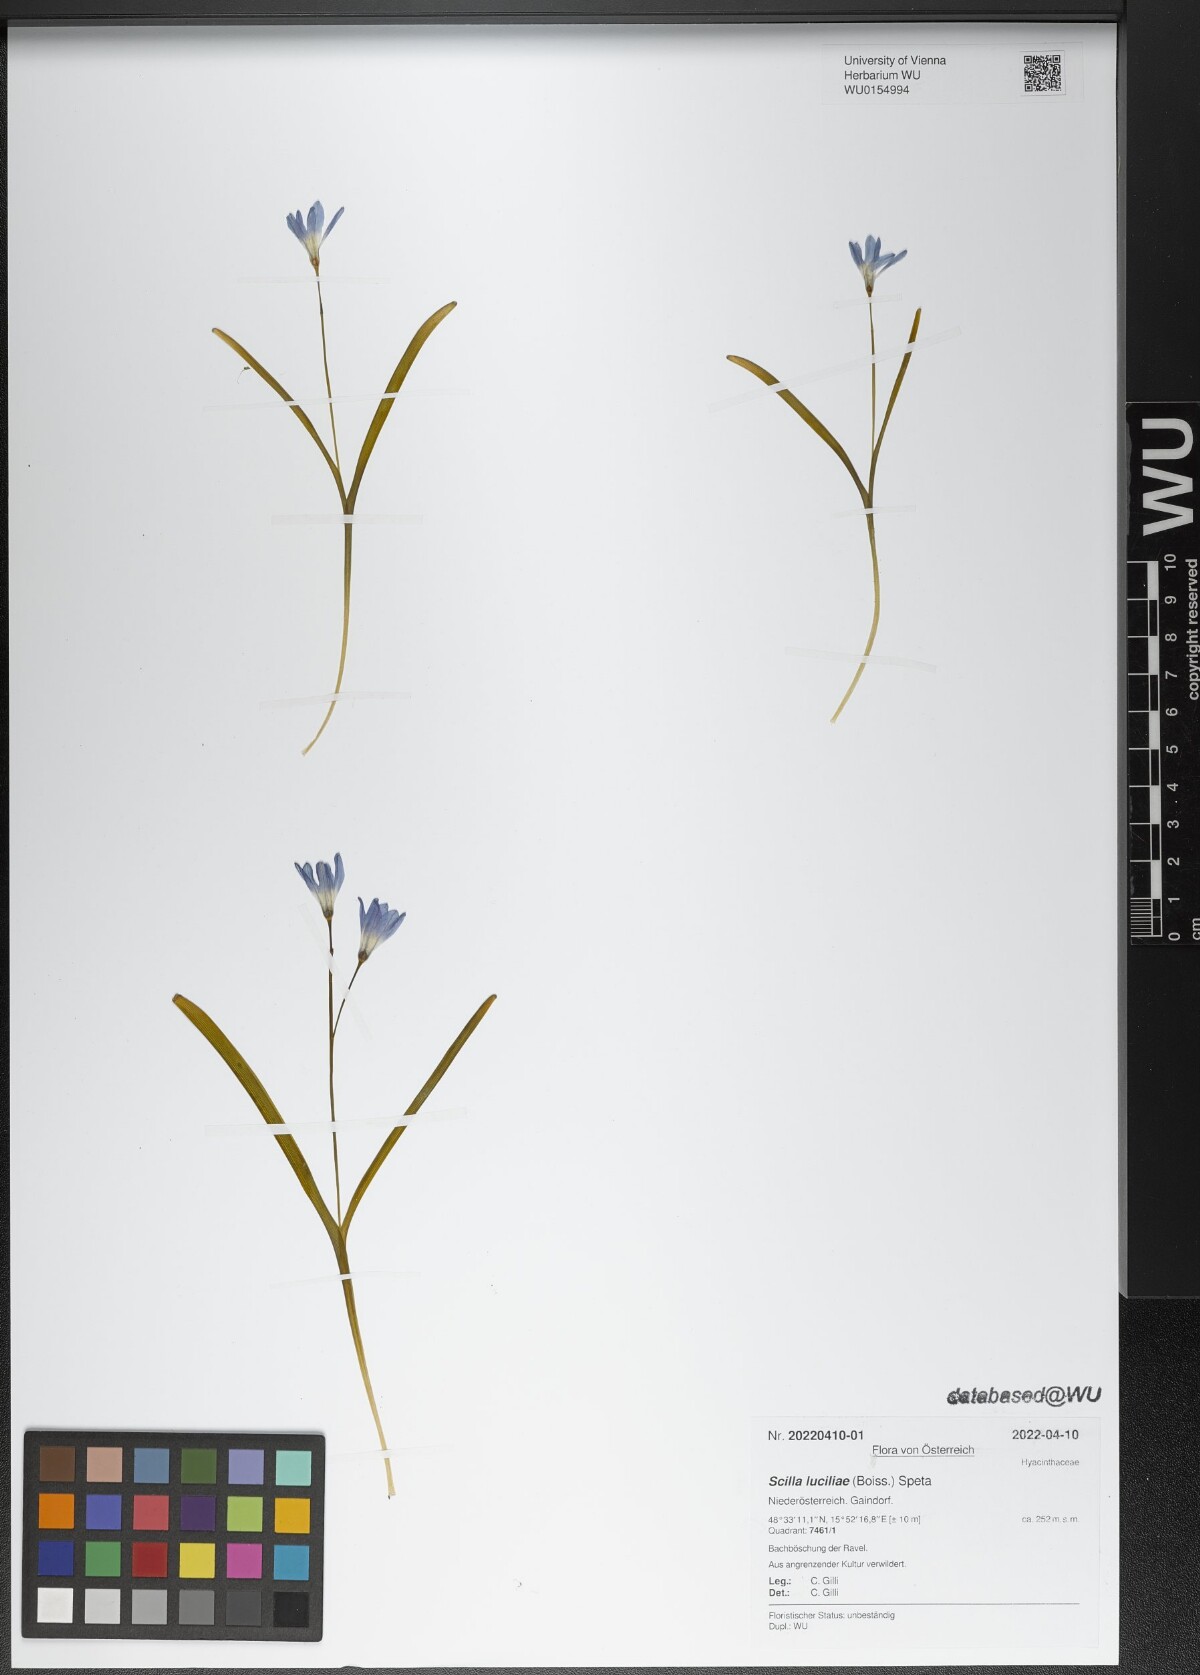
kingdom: Plantae
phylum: Tracheophyta
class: Liliopsida
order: Asparagales
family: Asparagaceae
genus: Scilla
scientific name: Scilla luciliae
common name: Boissier's glory-of-the-snow
